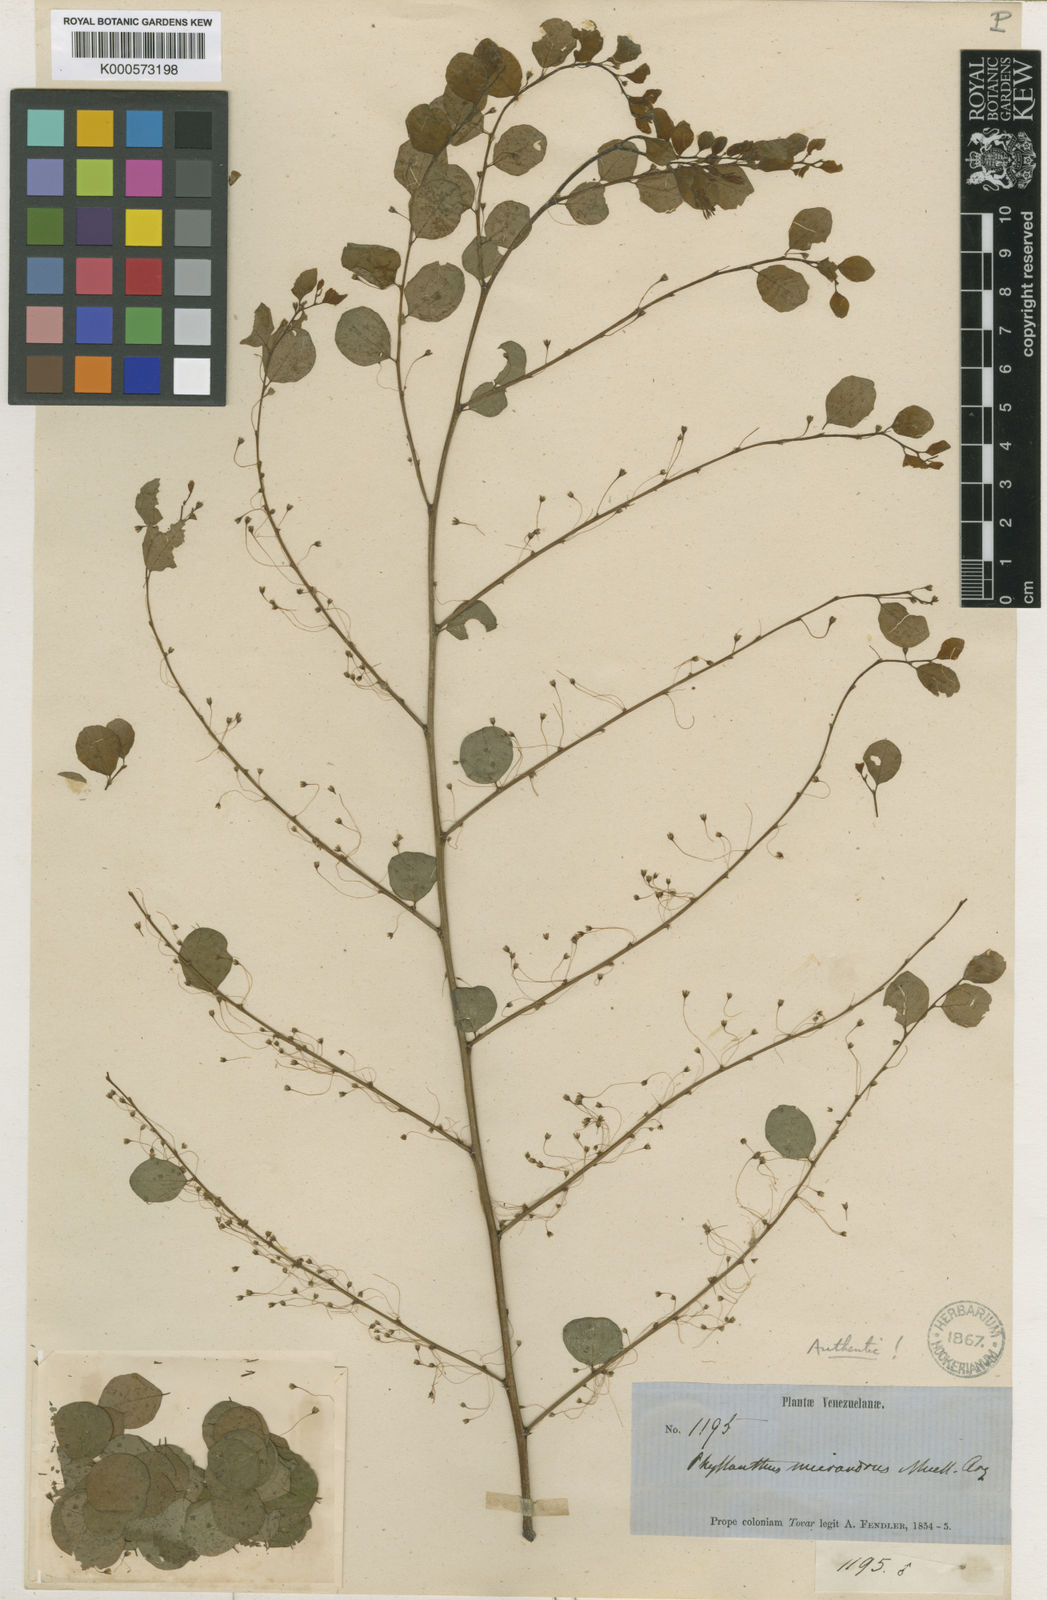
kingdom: Plantae
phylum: Tracheophyta
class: Magnoliopsida
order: Malpighiales
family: Phyllanthaceae
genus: Phyllanthus
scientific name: Phyllanthus
